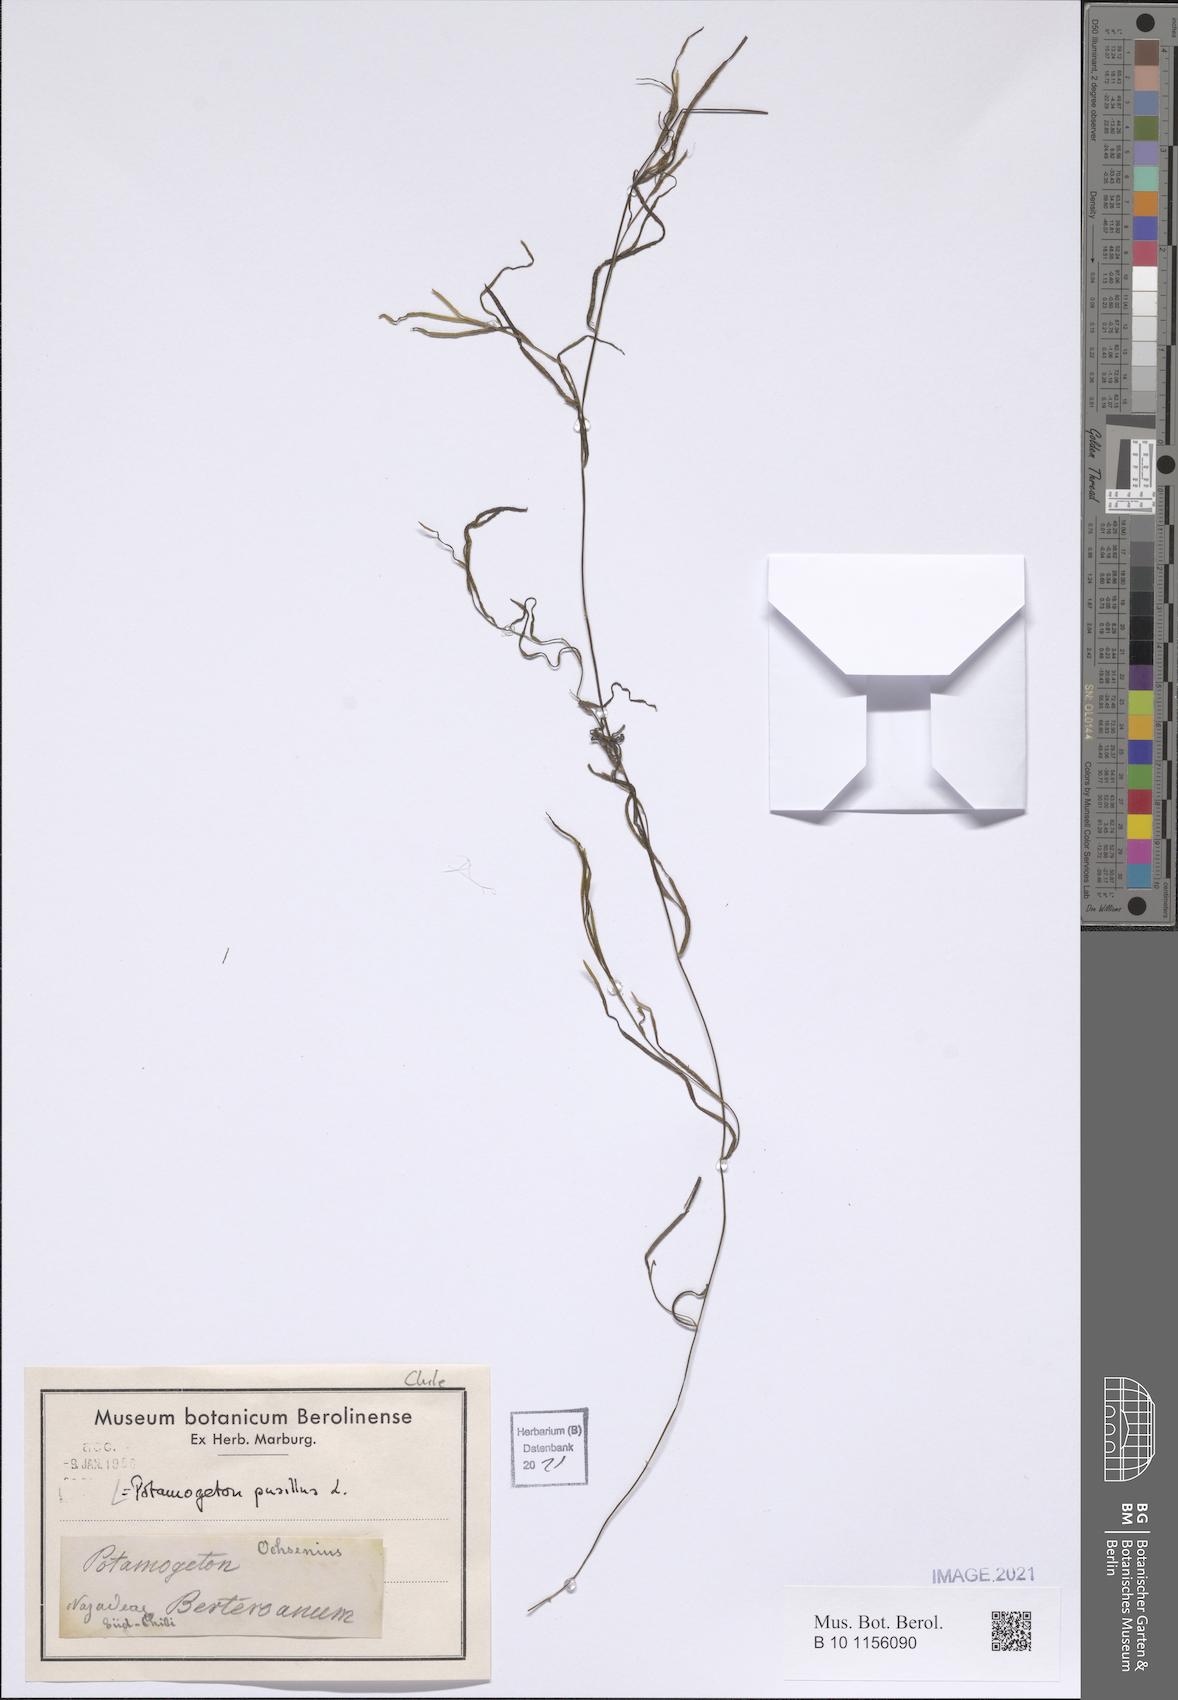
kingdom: Plantae
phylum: Tracheophyta
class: Liliopsida
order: Alismatales
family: Potamogetonaceae
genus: Potamogeton
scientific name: Potamogeton pusillus
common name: Lesser pondweed
